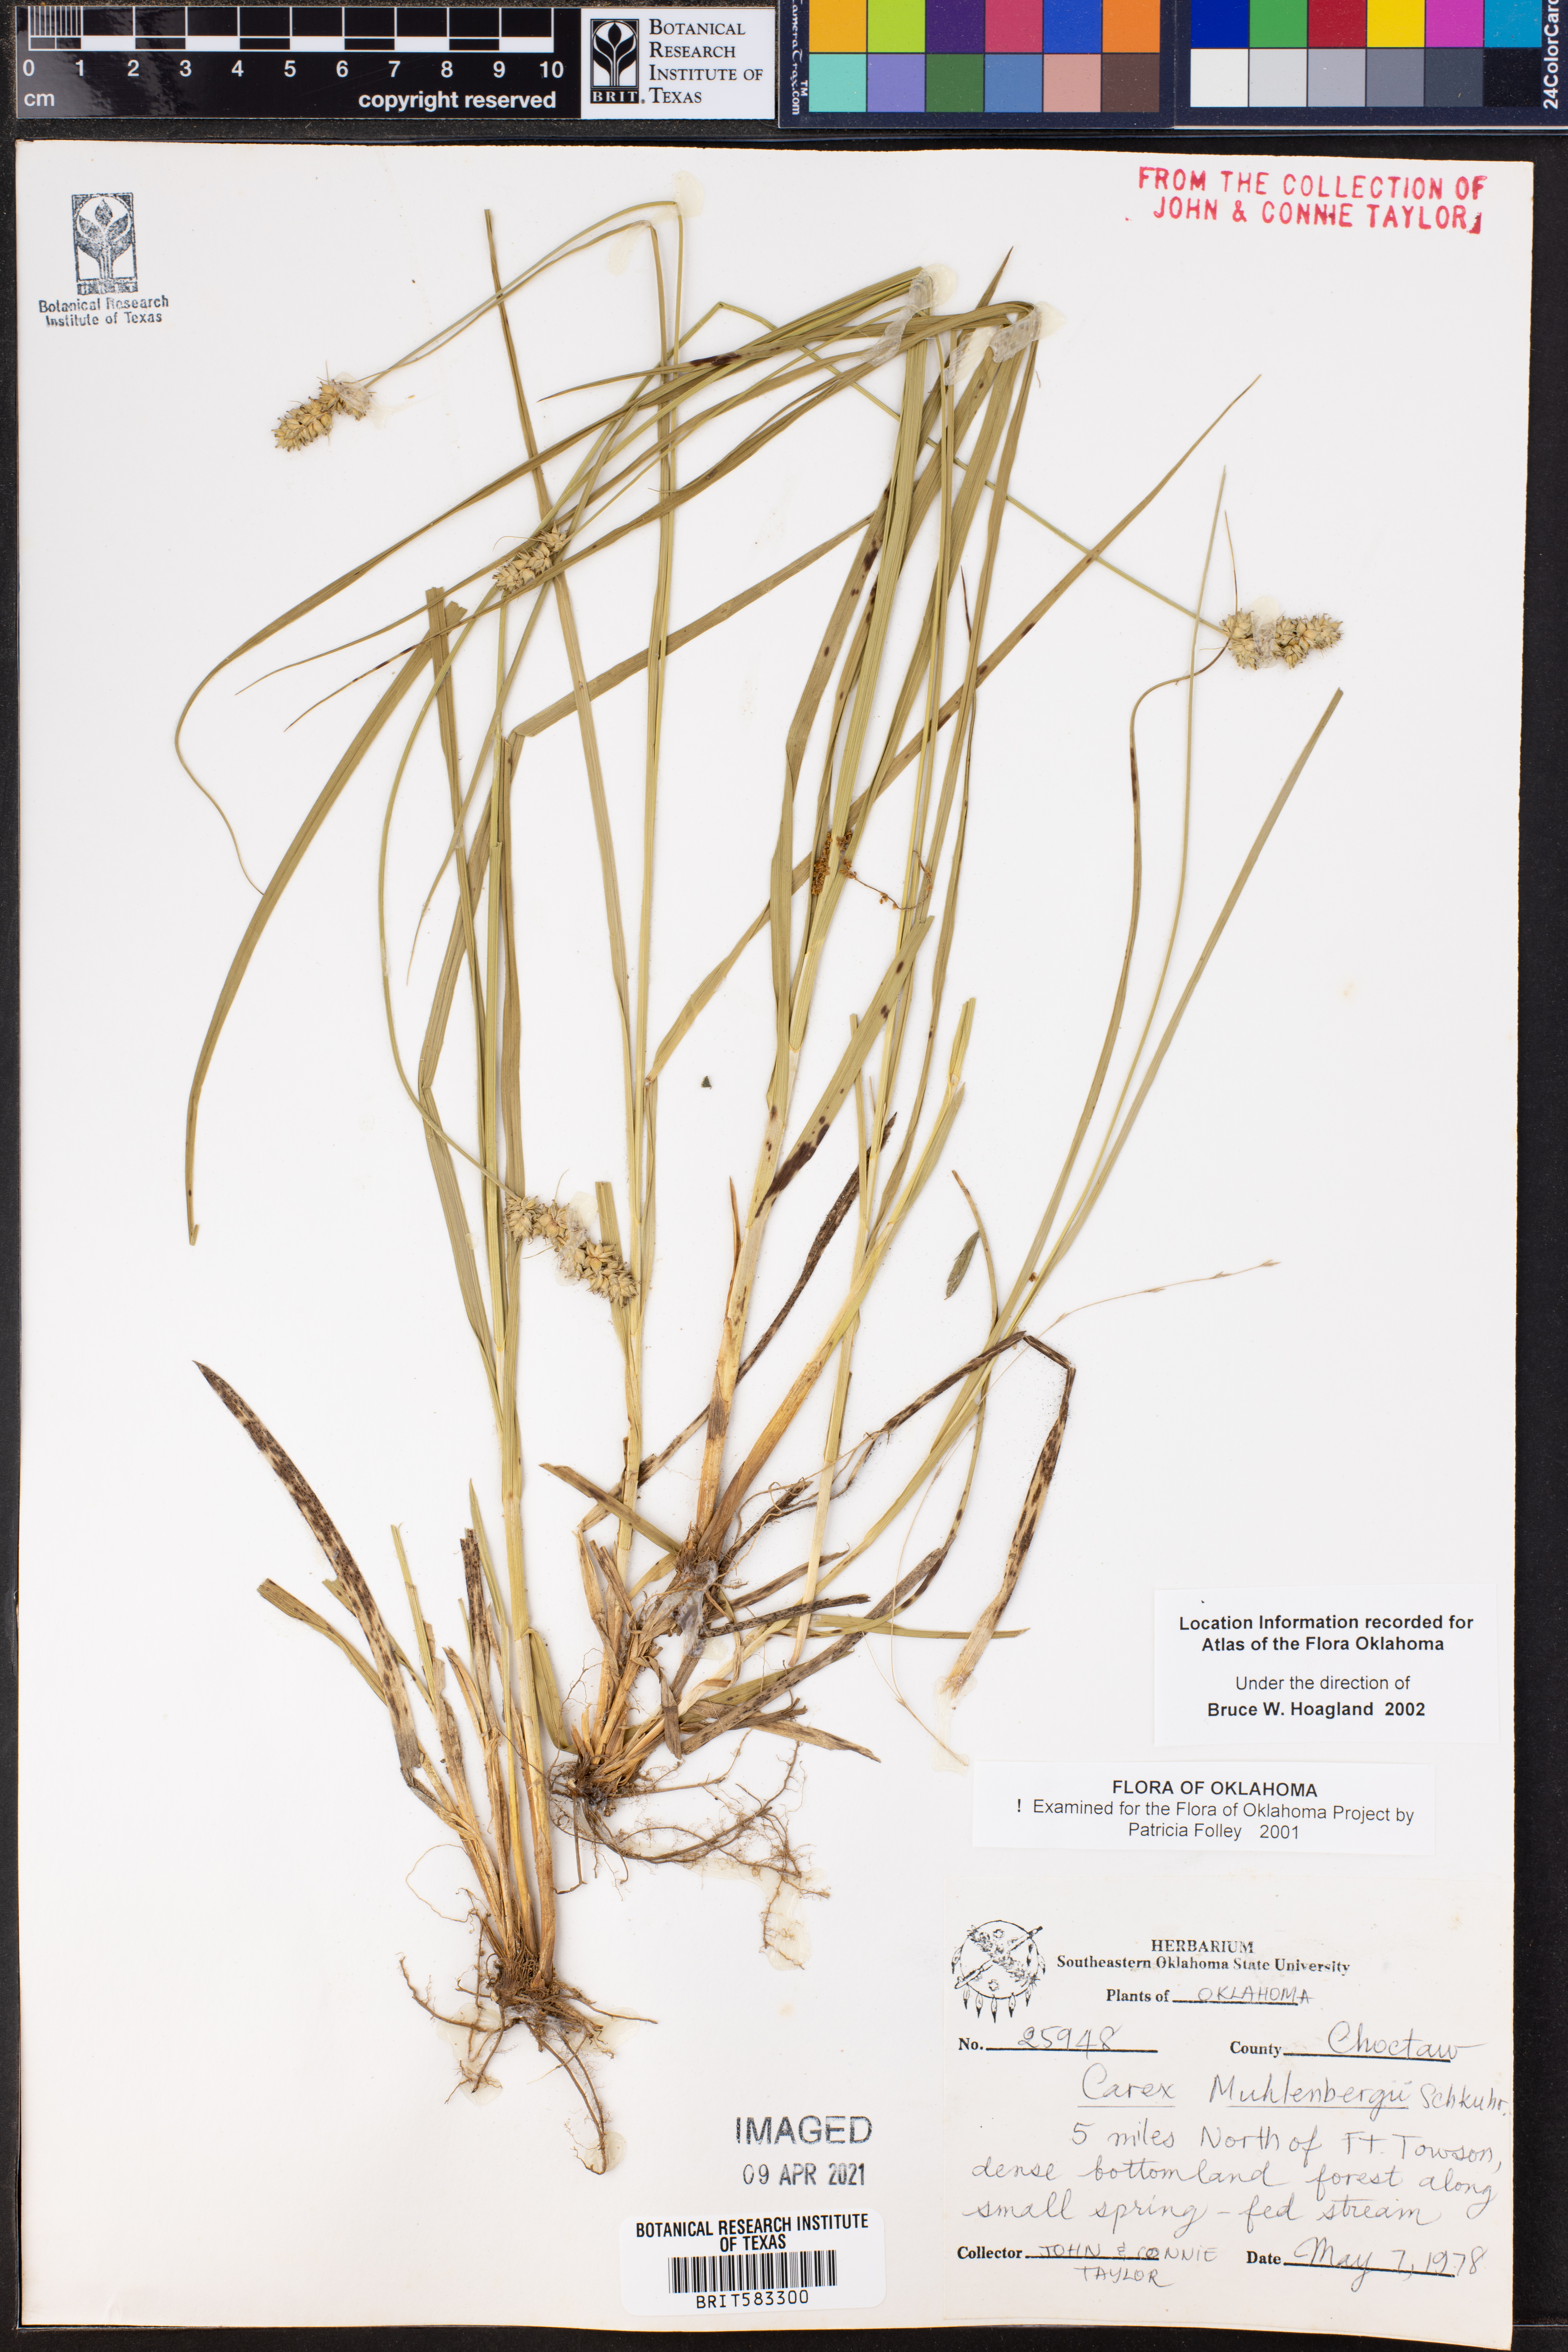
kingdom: Plantae
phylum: Tracheophyta
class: Liliopsida
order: Poales
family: Cyperaceae
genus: Carex
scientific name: Carex vulpinoidea
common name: American fox-sedge
